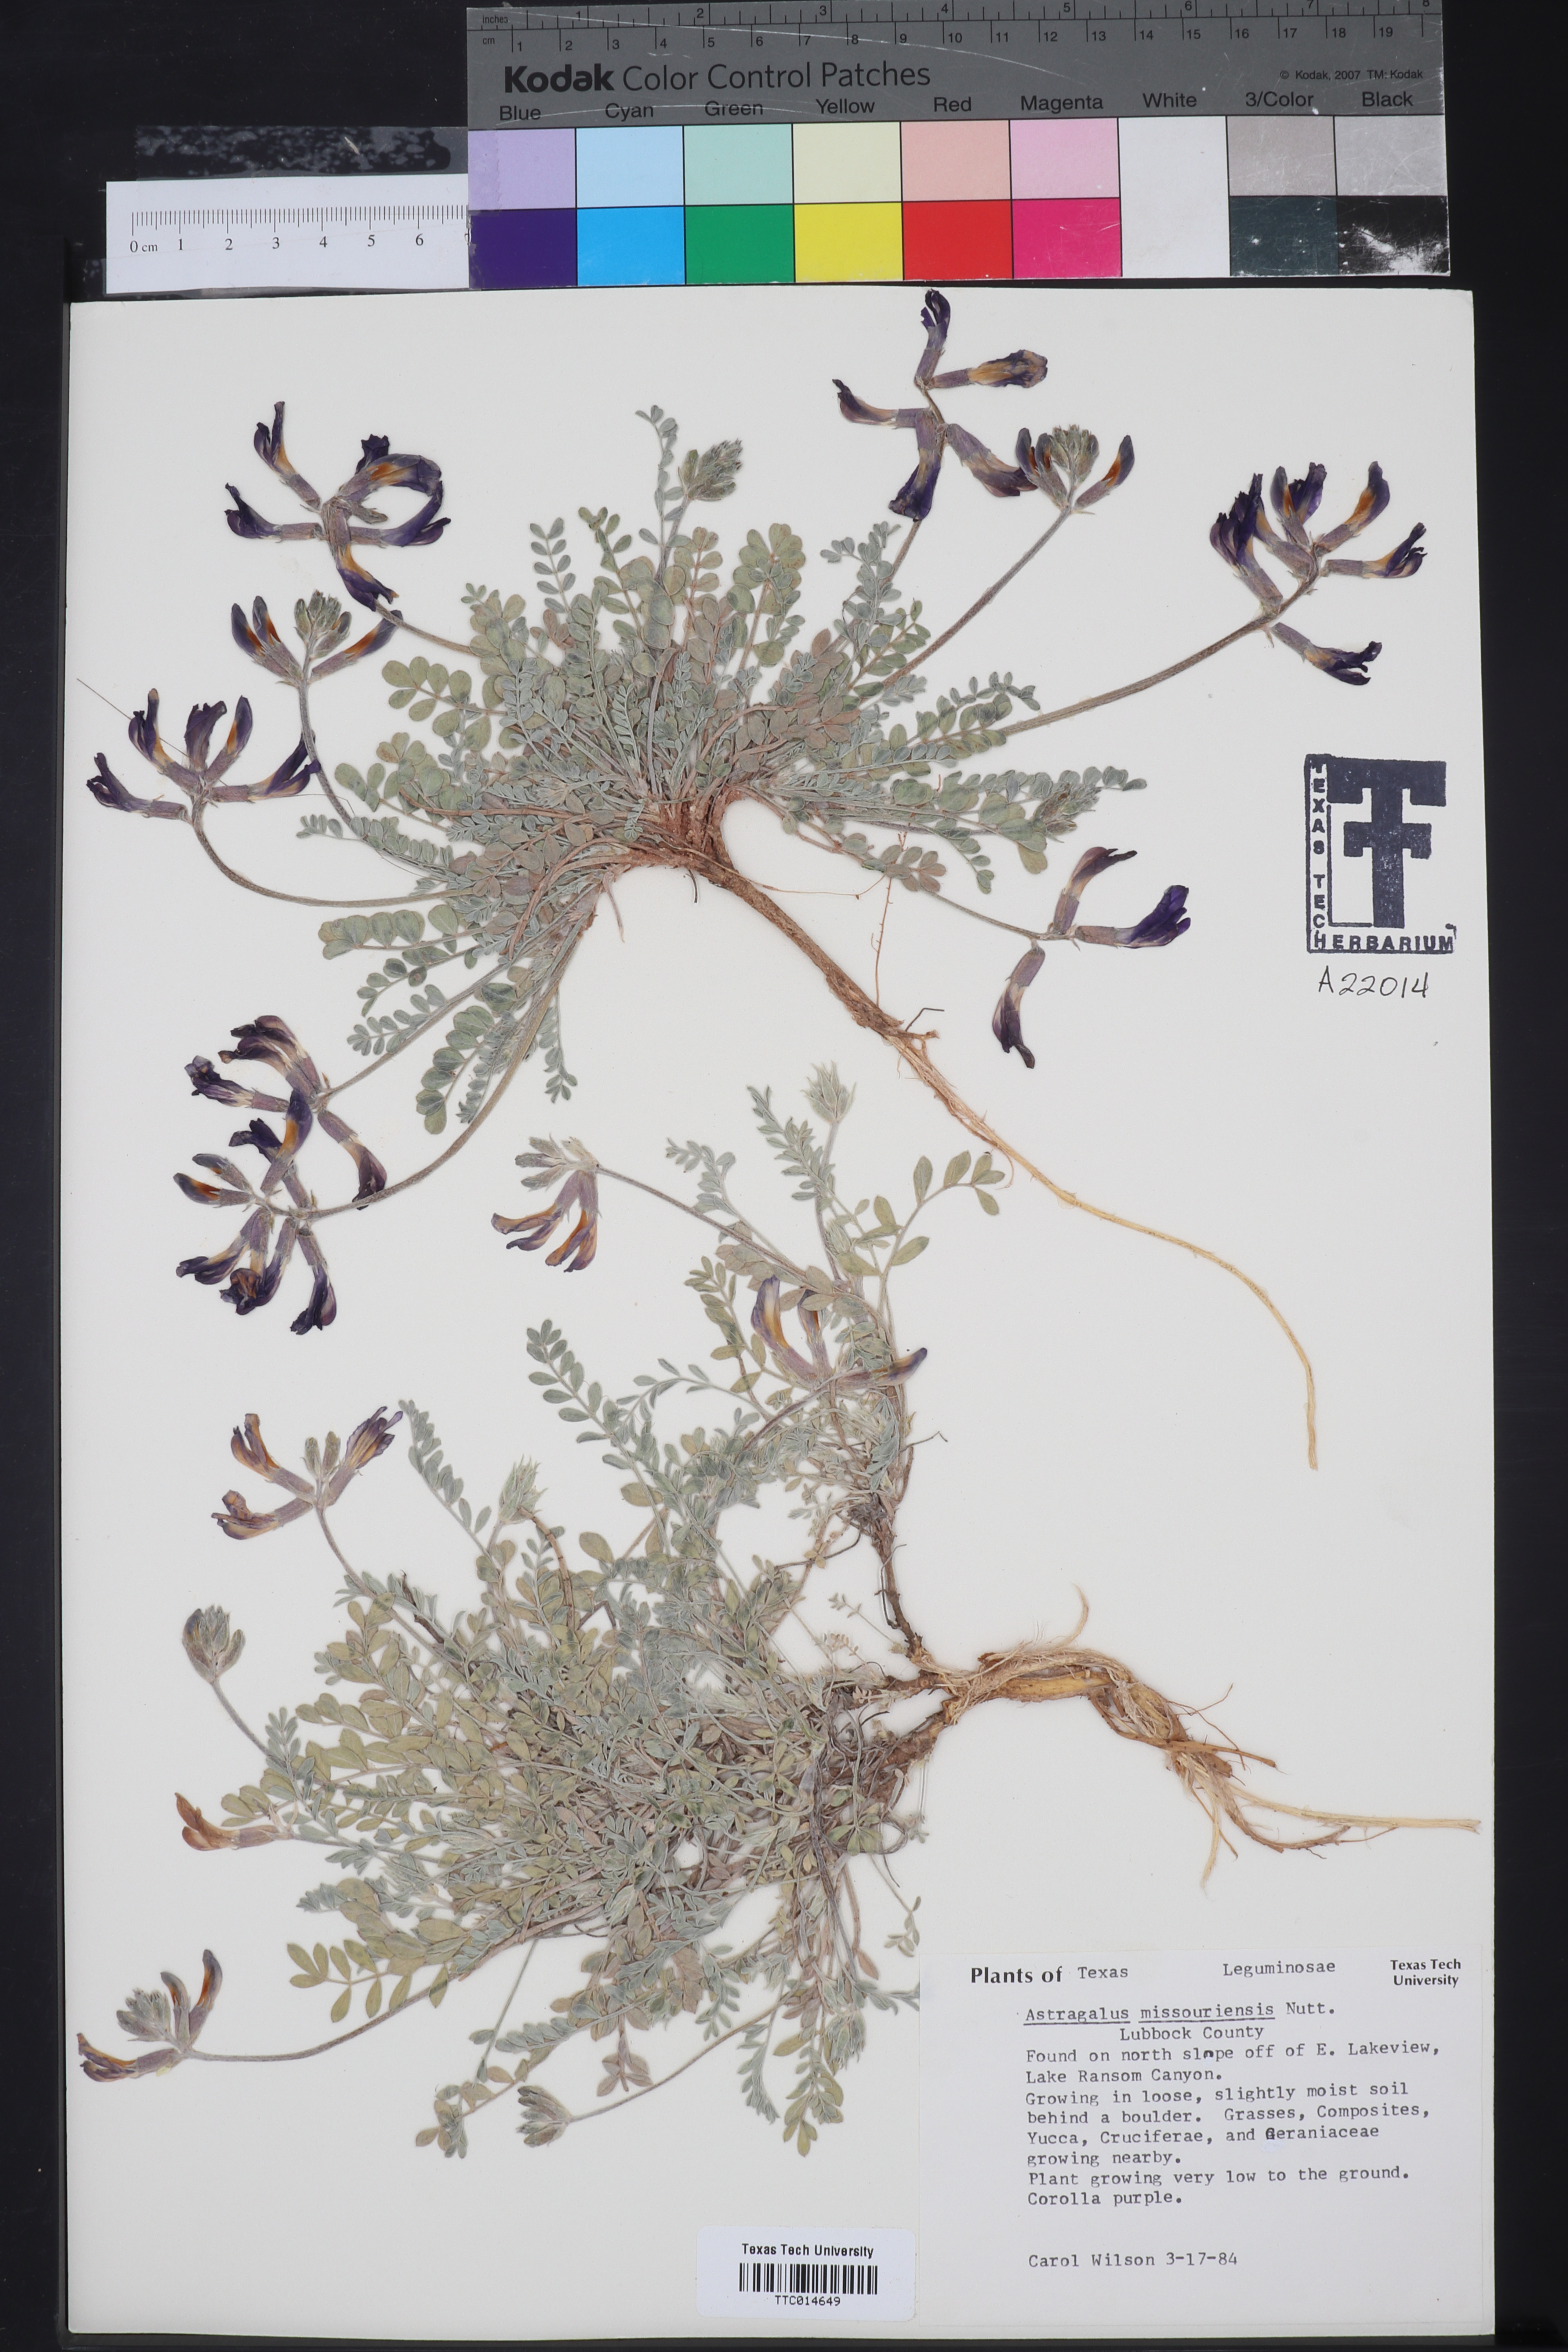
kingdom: Plantae
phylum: Tracheophyta
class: Magnoliopsida
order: Fabales
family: Fabaceae
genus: Astragalus
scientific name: Astragalus missouriensis
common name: Missouri milk-vetch
